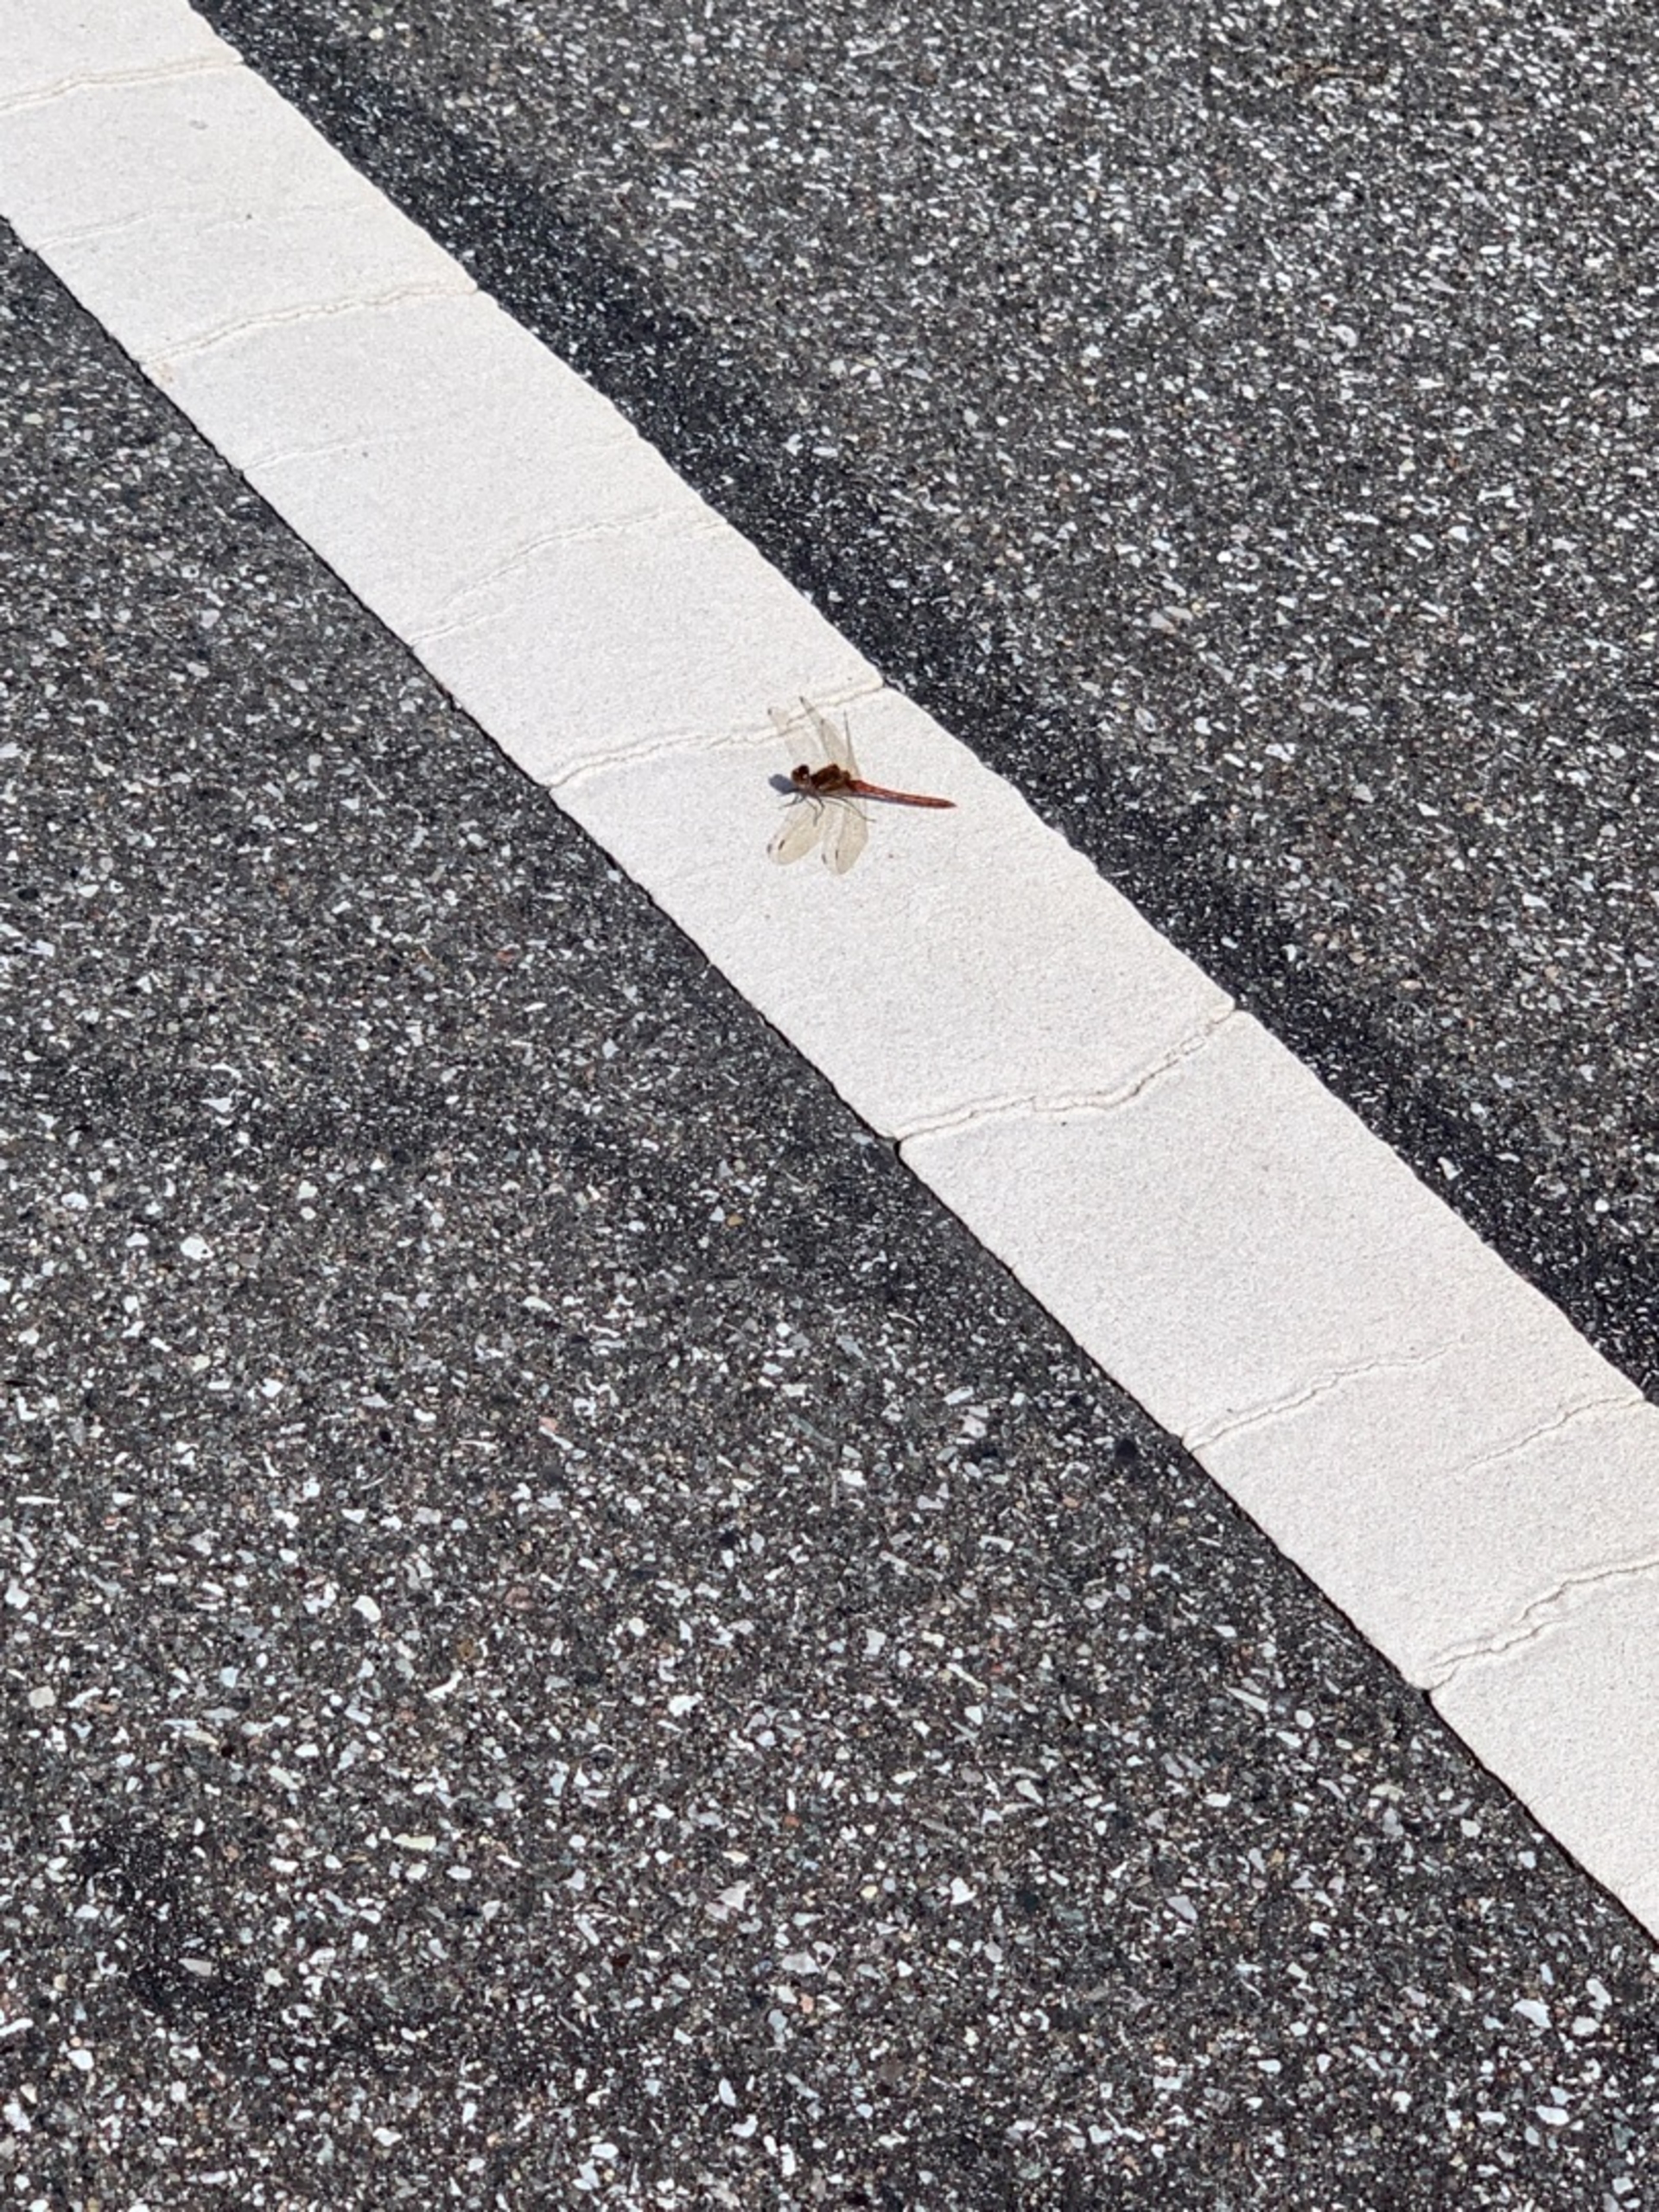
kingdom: Animalia
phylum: Arthropoda
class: Insecta
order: Odonata
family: Libellulidae
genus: Sympetrum
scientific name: Sympetrum
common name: Hedelibeller
